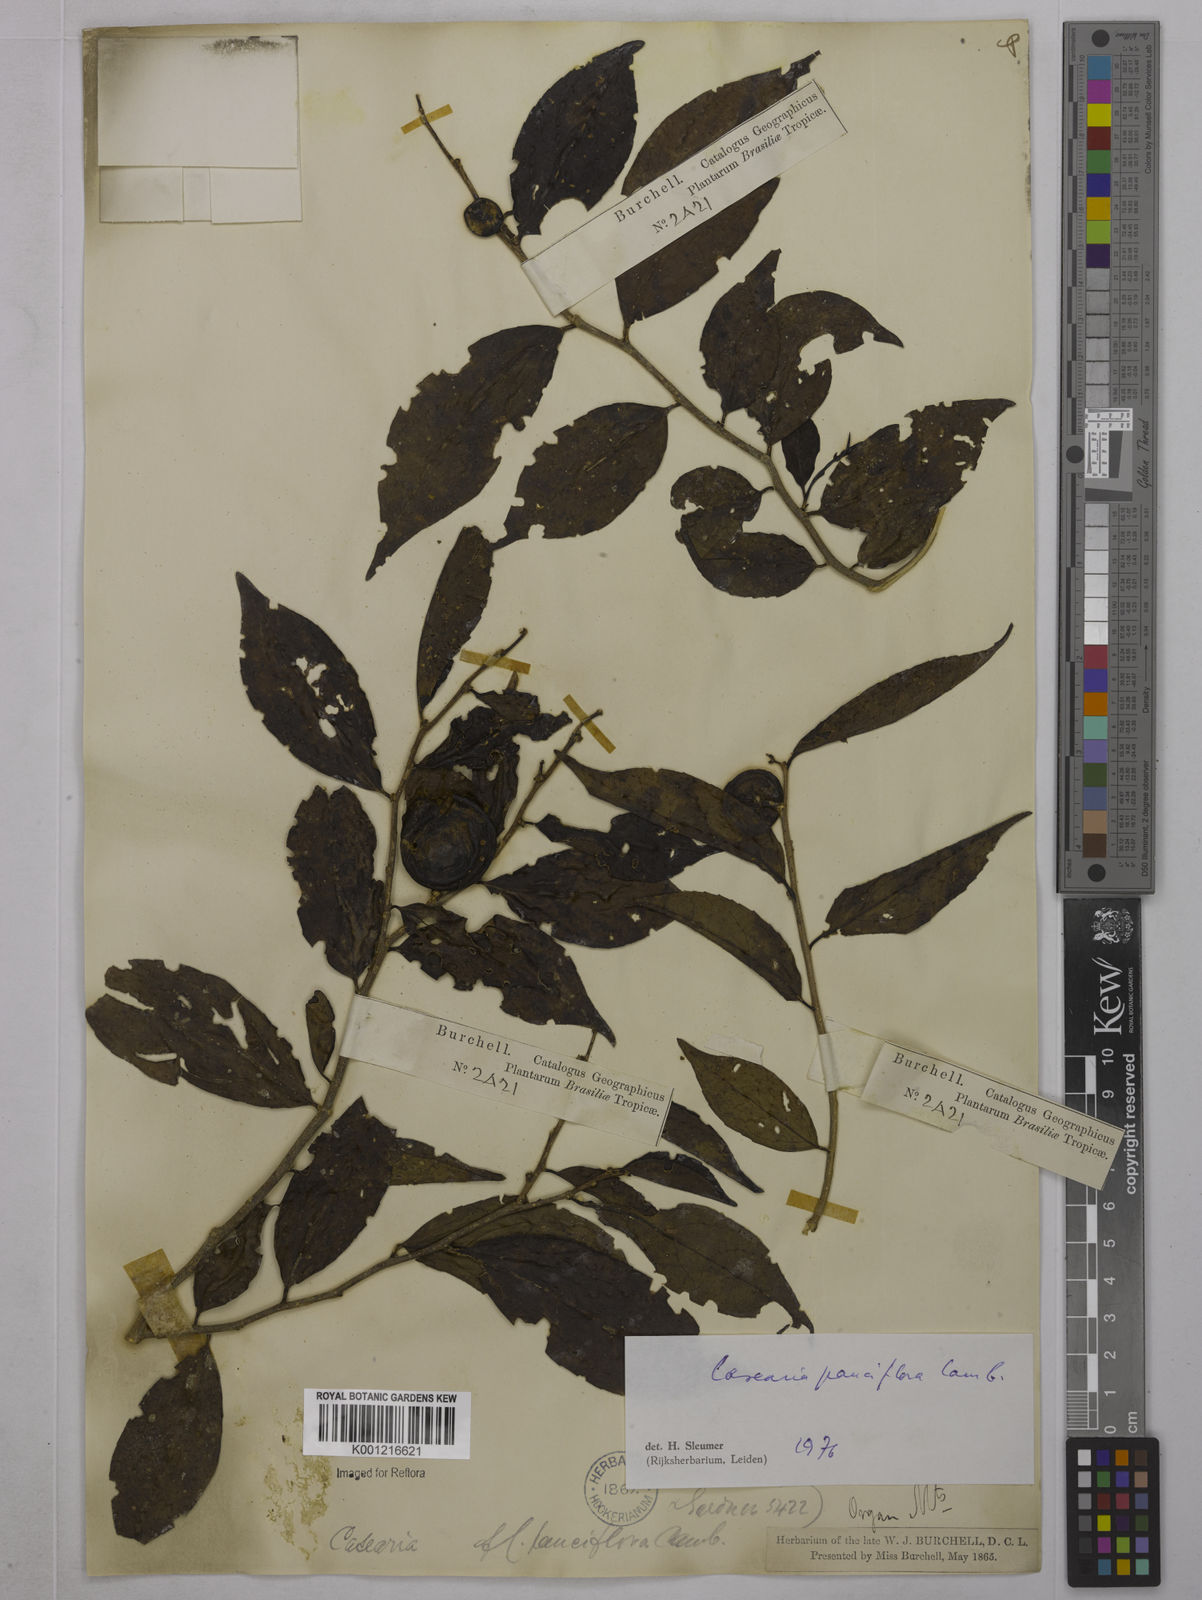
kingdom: Plantae
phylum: Tracheophyta
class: Magnoliopsida
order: Malpighiales
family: Salicaceae
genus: Casearia
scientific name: Casearia pauciflora
